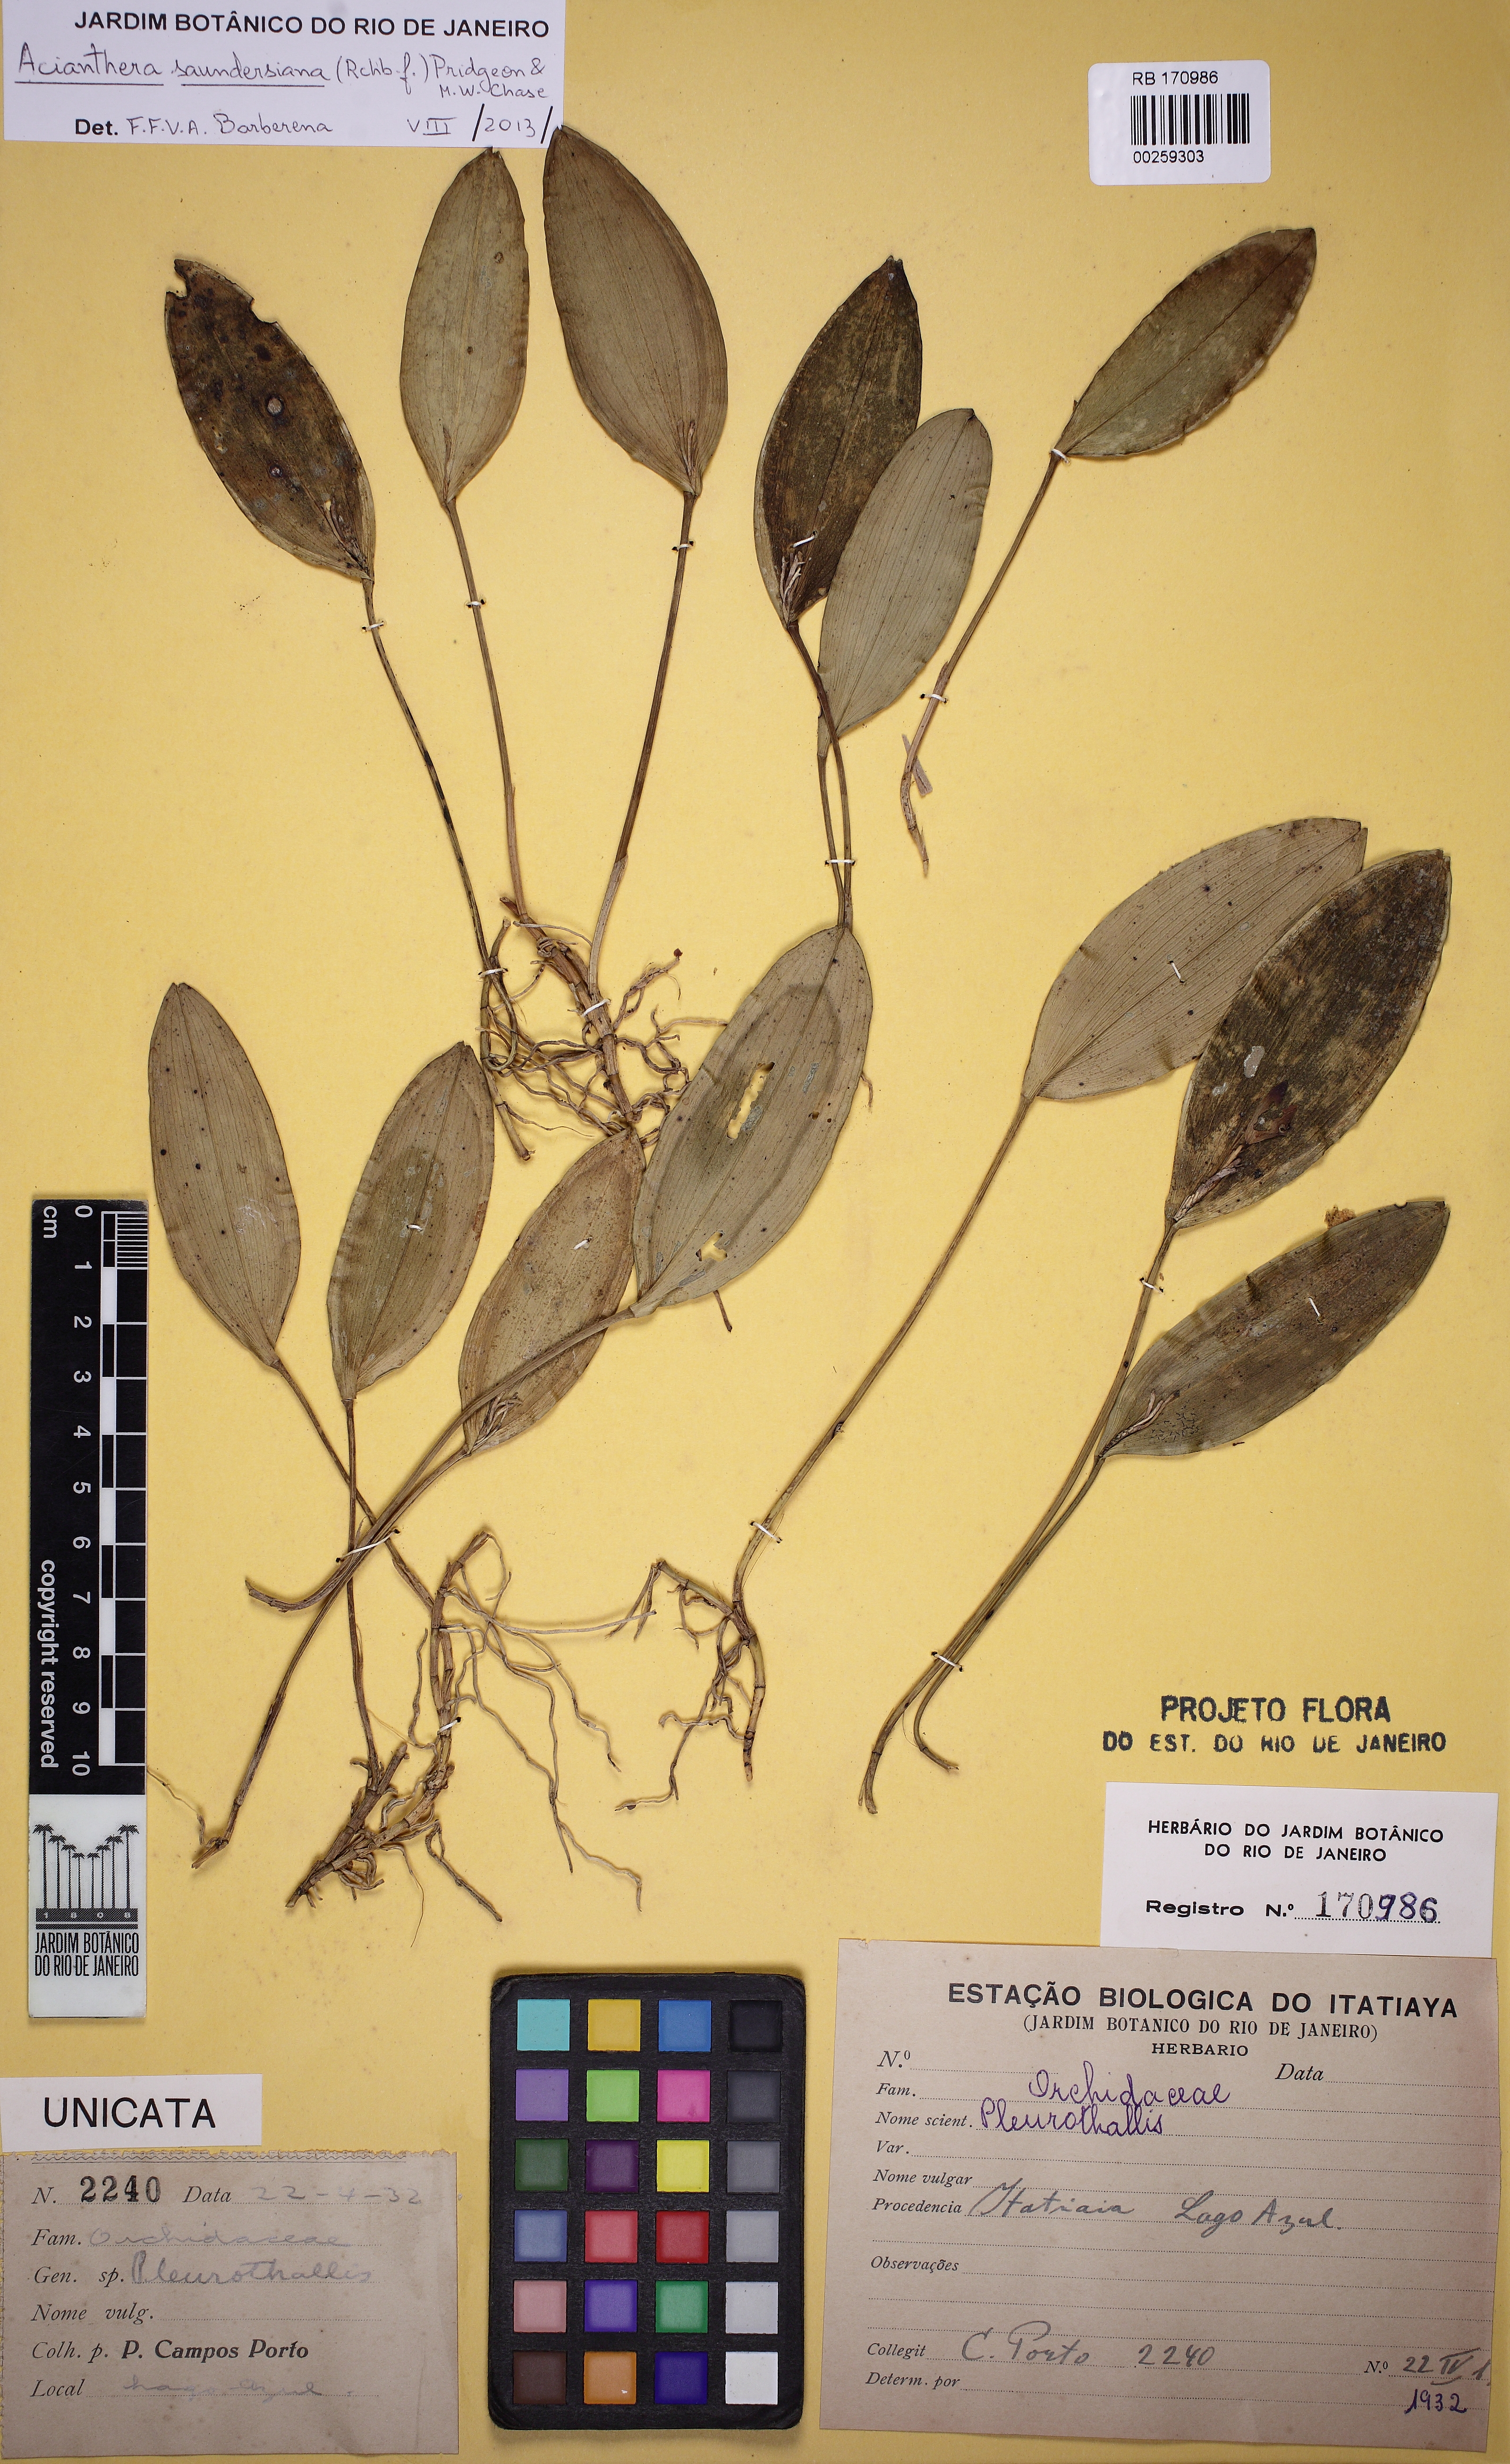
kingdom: Plantae
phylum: Tracheophyta
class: Liliopsida
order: Asparagales
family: Orchidaceae
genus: Acianthera
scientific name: Acianthera saundersiana
